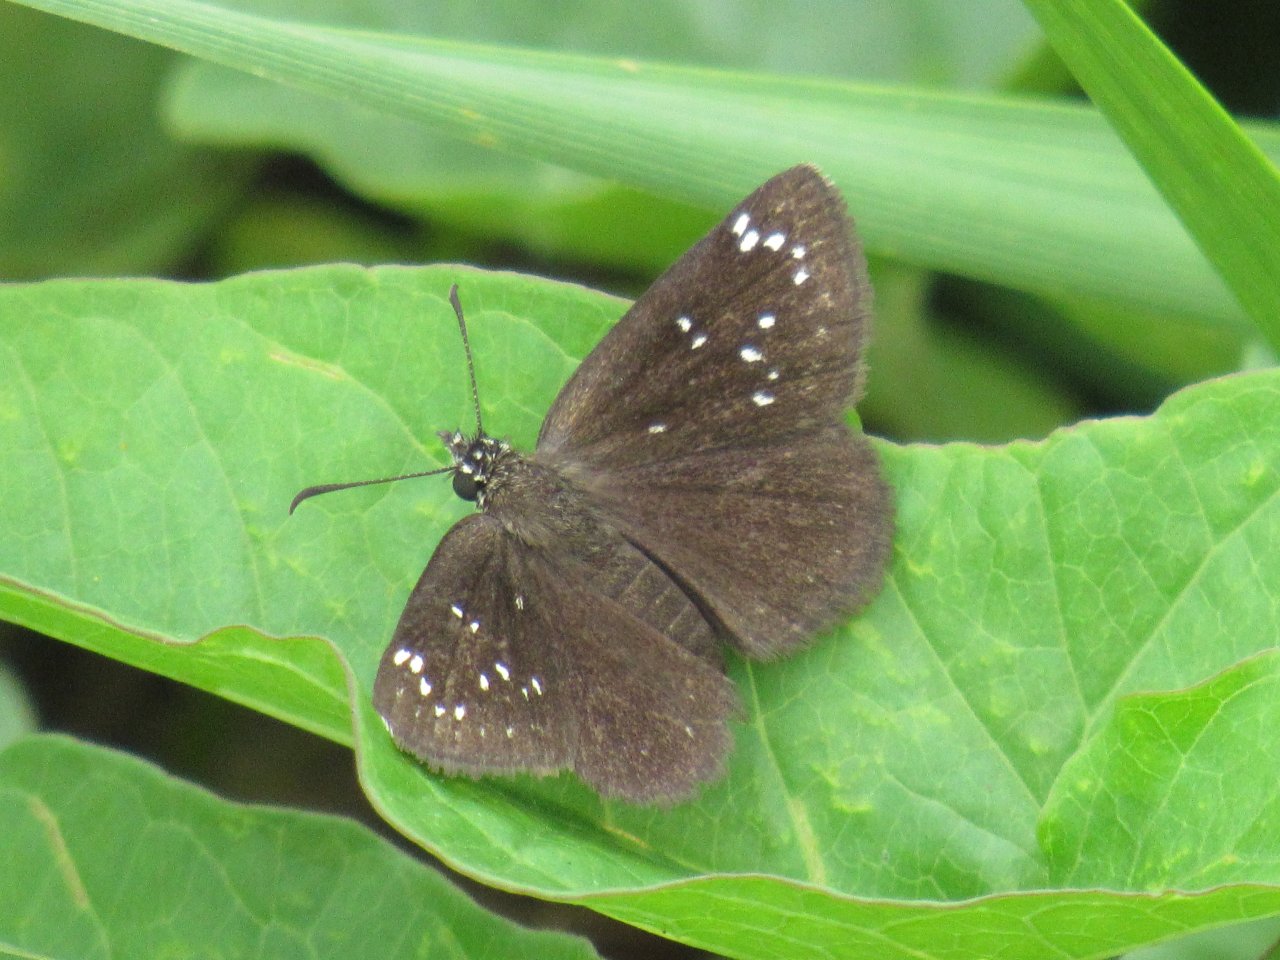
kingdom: Animalia
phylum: Arthropoda
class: Insecta
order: Lepidoptera
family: Hesperiidae
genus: Pholisora
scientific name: Pholisora catullus
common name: Common Sootywing
